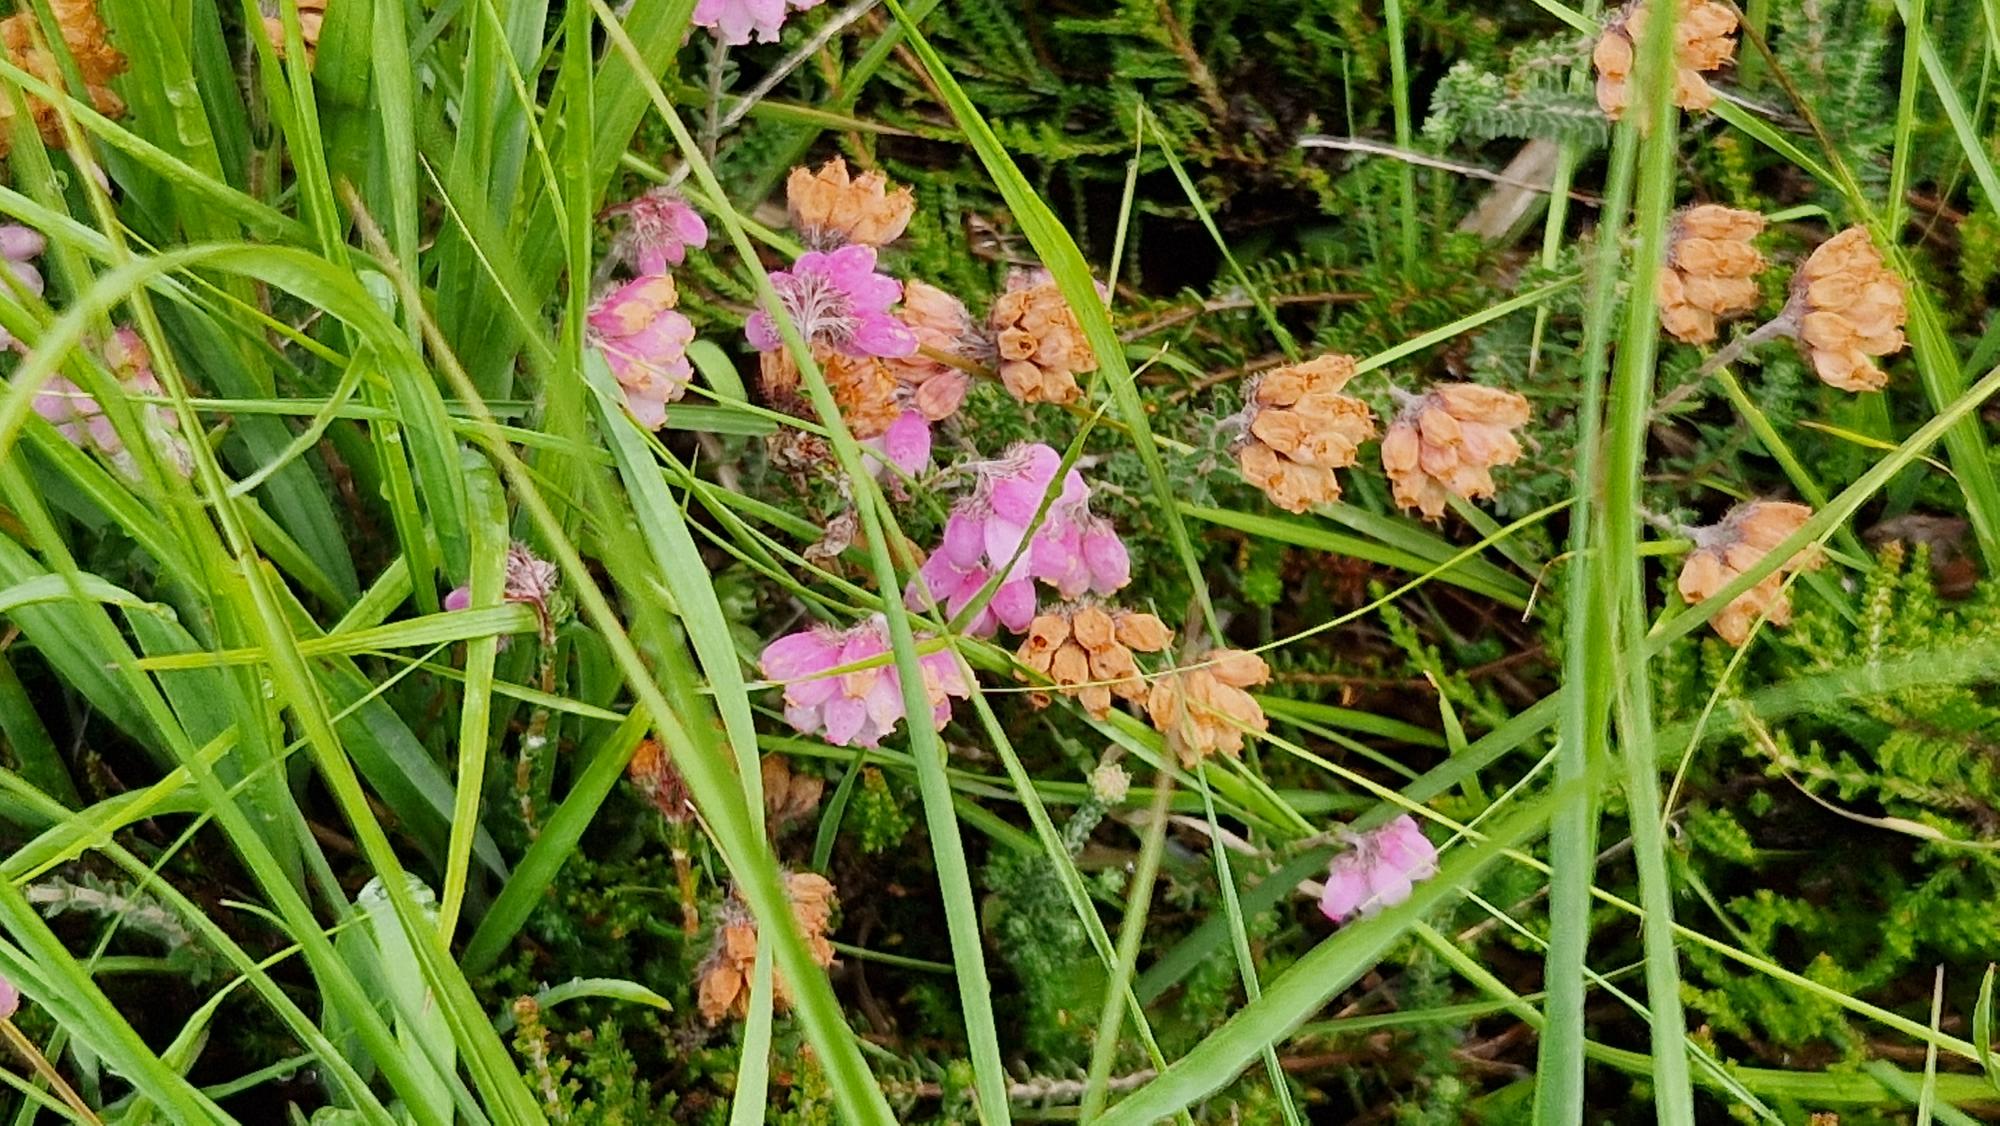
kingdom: Plantae
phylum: Tracheophyta
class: Magnoliopsida
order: Ericales
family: Ericaceae
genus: Erica
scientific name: Erica tetralix
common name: Klokkelyng
